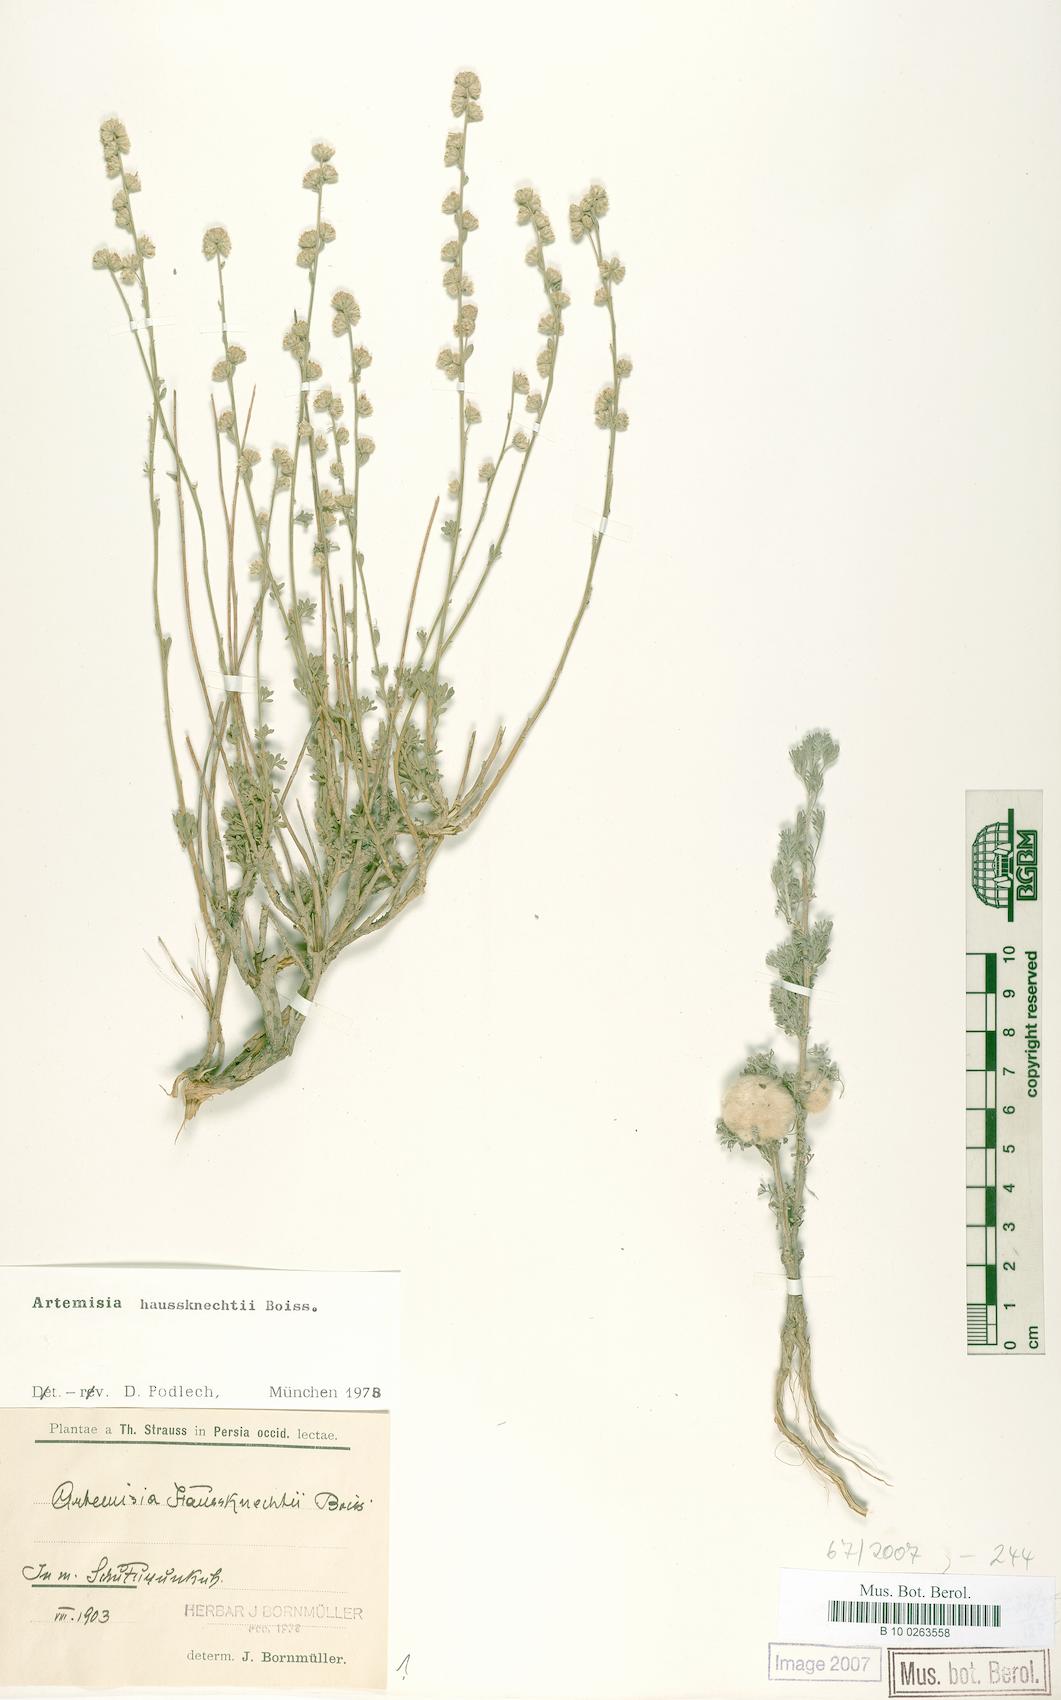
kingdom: Plantae
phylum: Tracheophyta
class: Magnoliopsida
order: Asterales
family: Asteraceae
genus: Artemisia
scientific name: Artemisia haussknechtii
